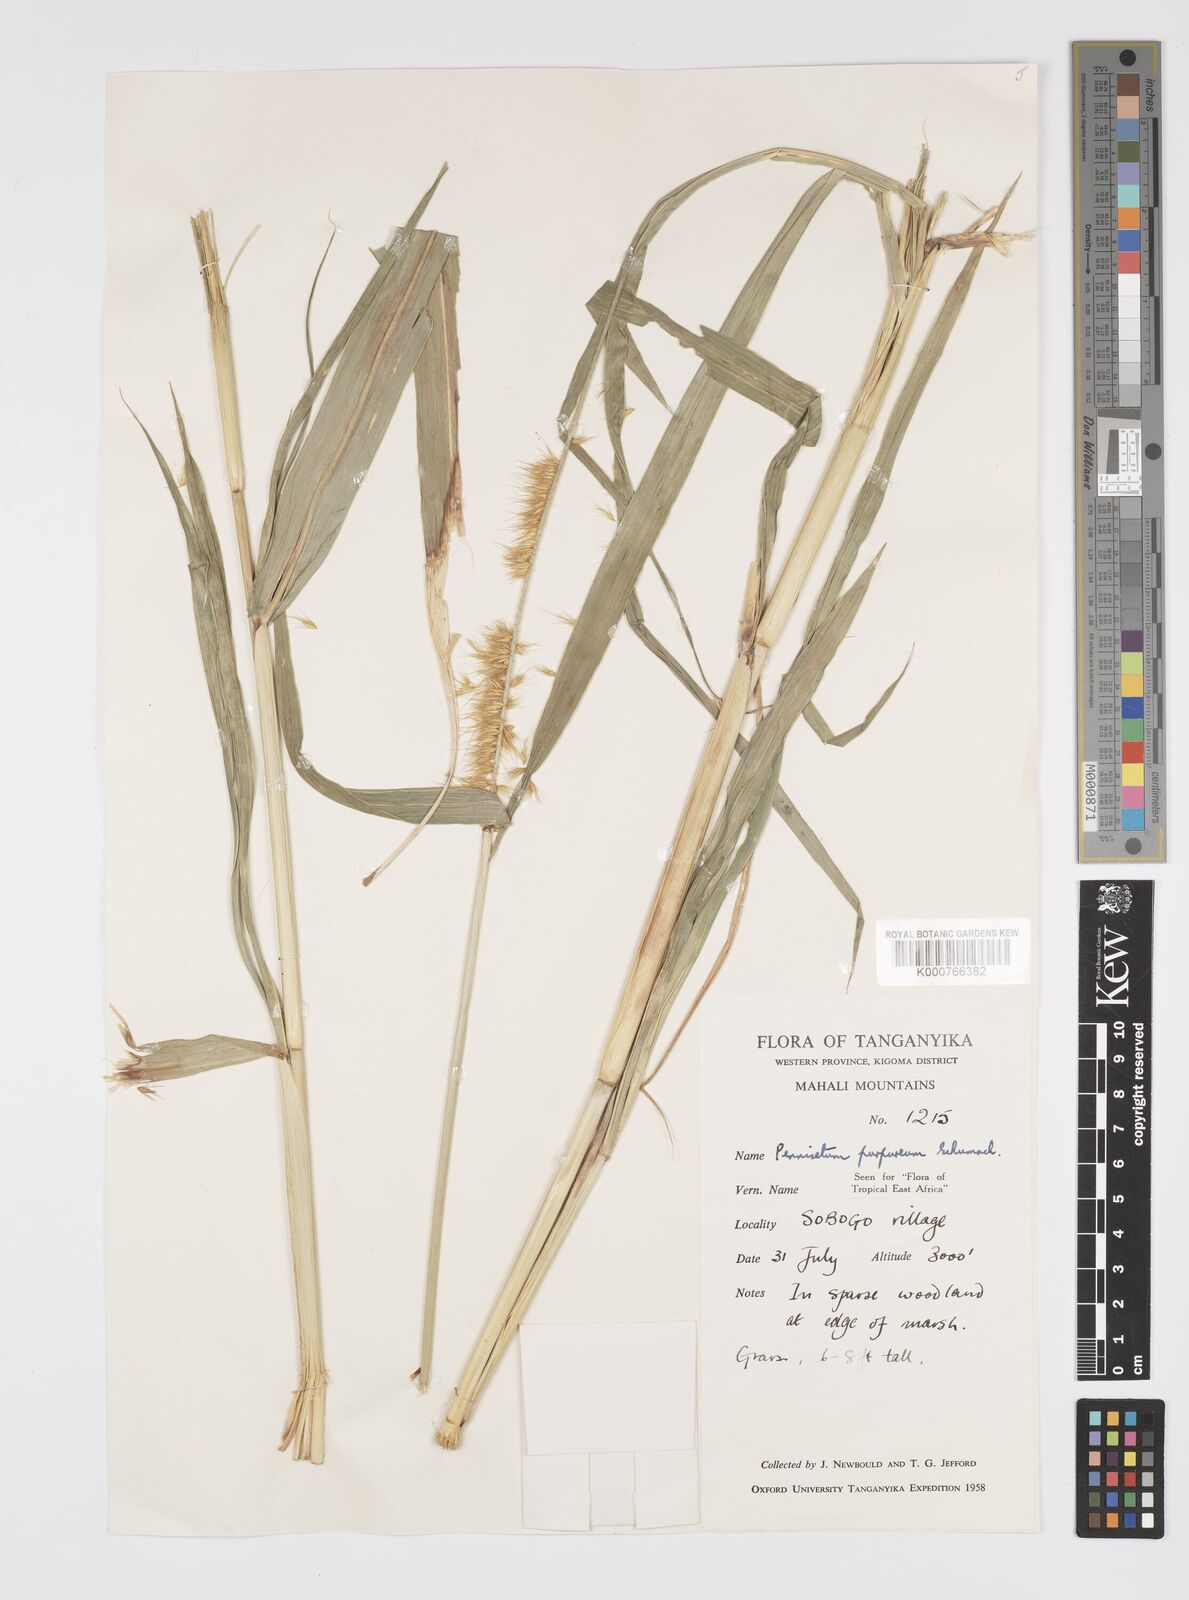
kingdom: Plantae
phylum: Tracheophyta
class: Liliopsida
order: Poales
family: Poaceae
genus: Cenchrus
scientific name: Cenchrus purpureus
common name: Elephant grass
